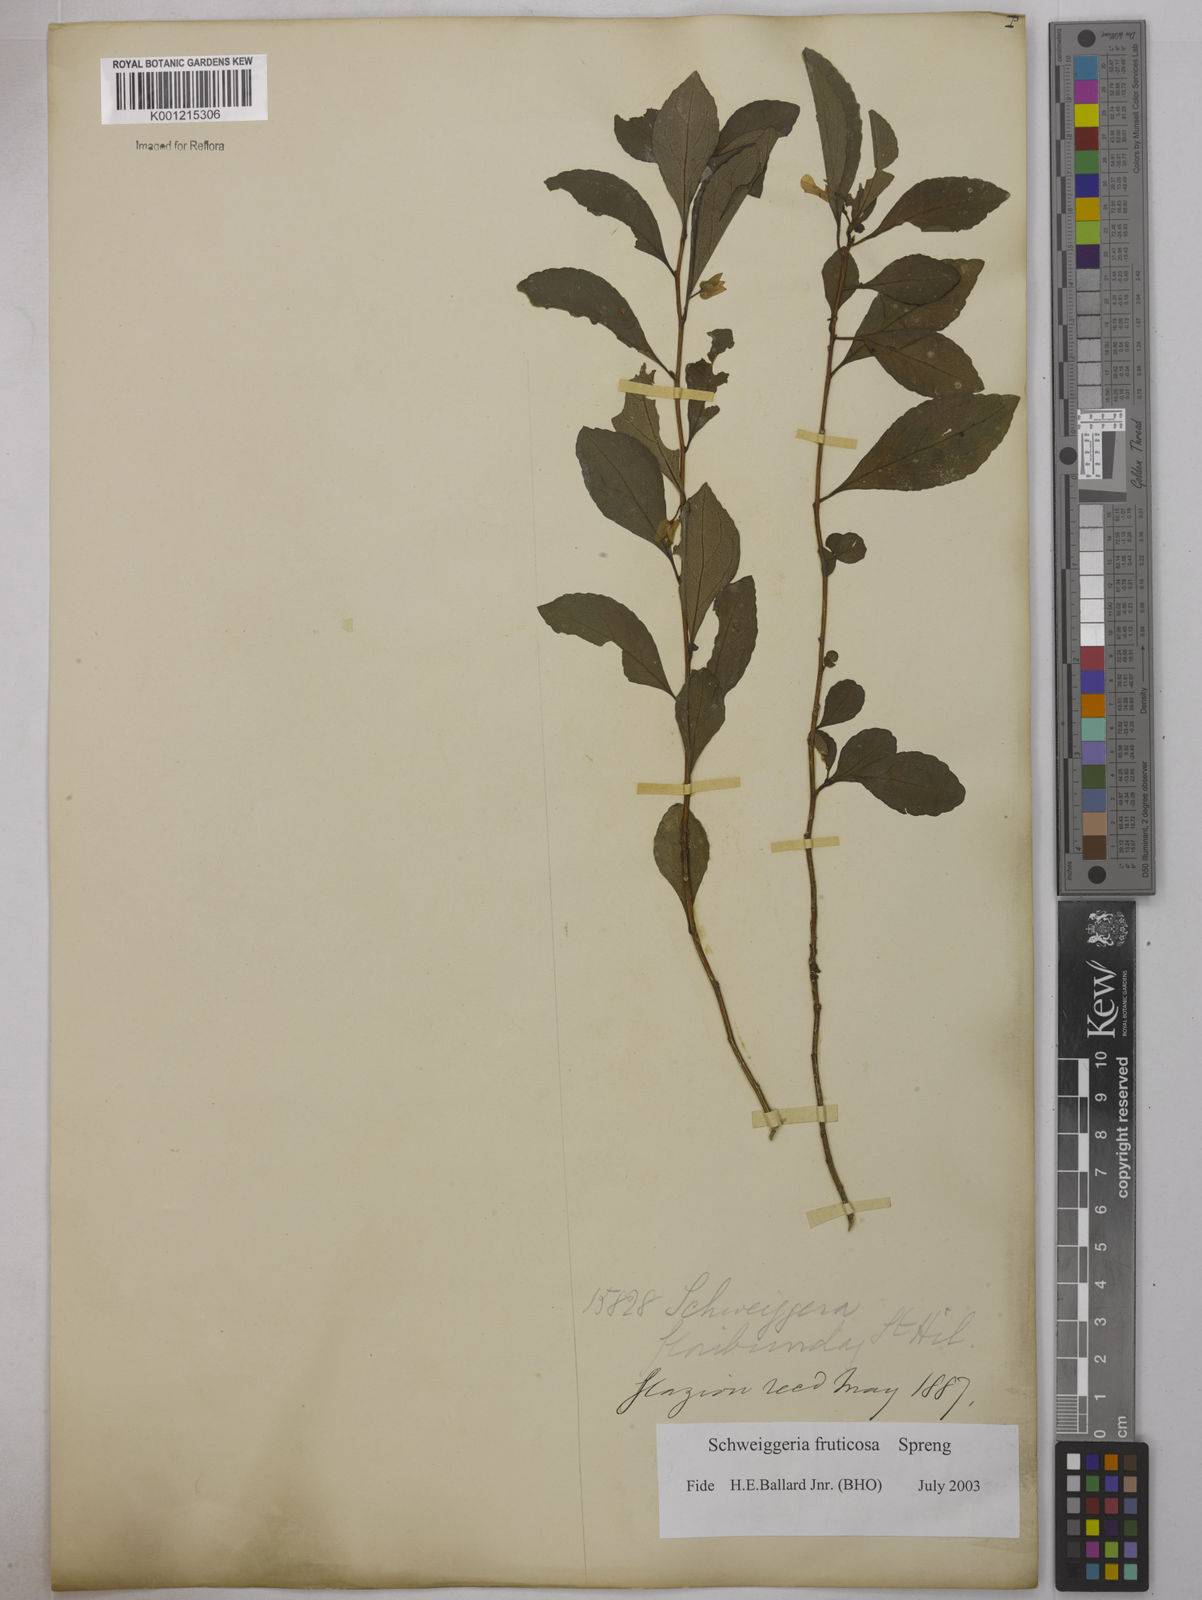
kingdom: Plantae
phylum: Tracheophyta
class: Magnoliopsida
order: Malpighiales
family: Violaceae
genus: Schweiggeria
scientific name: Schweiggeria fruticosa
